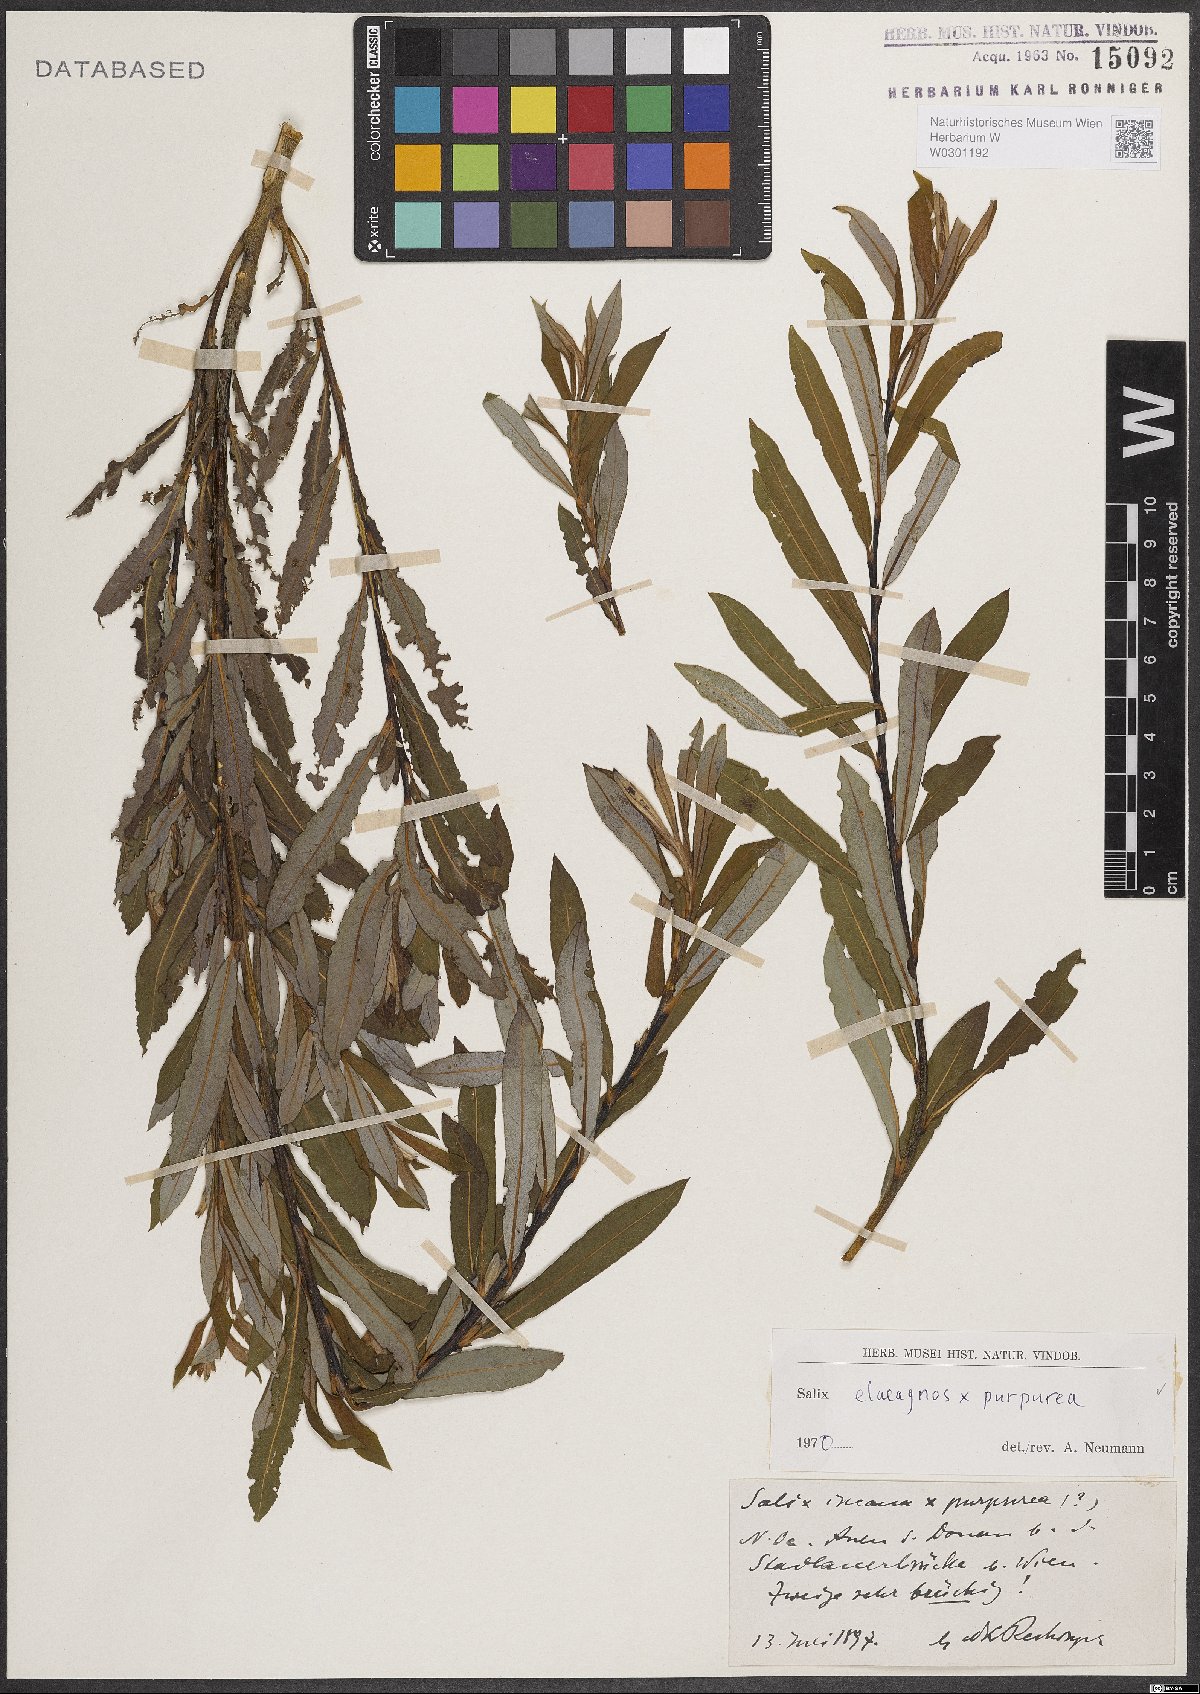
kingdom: Plantae
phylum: Tracheophyta
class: Magnoliopsida
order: Malpighiales
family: Salicaceae
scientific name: Salicaceae
